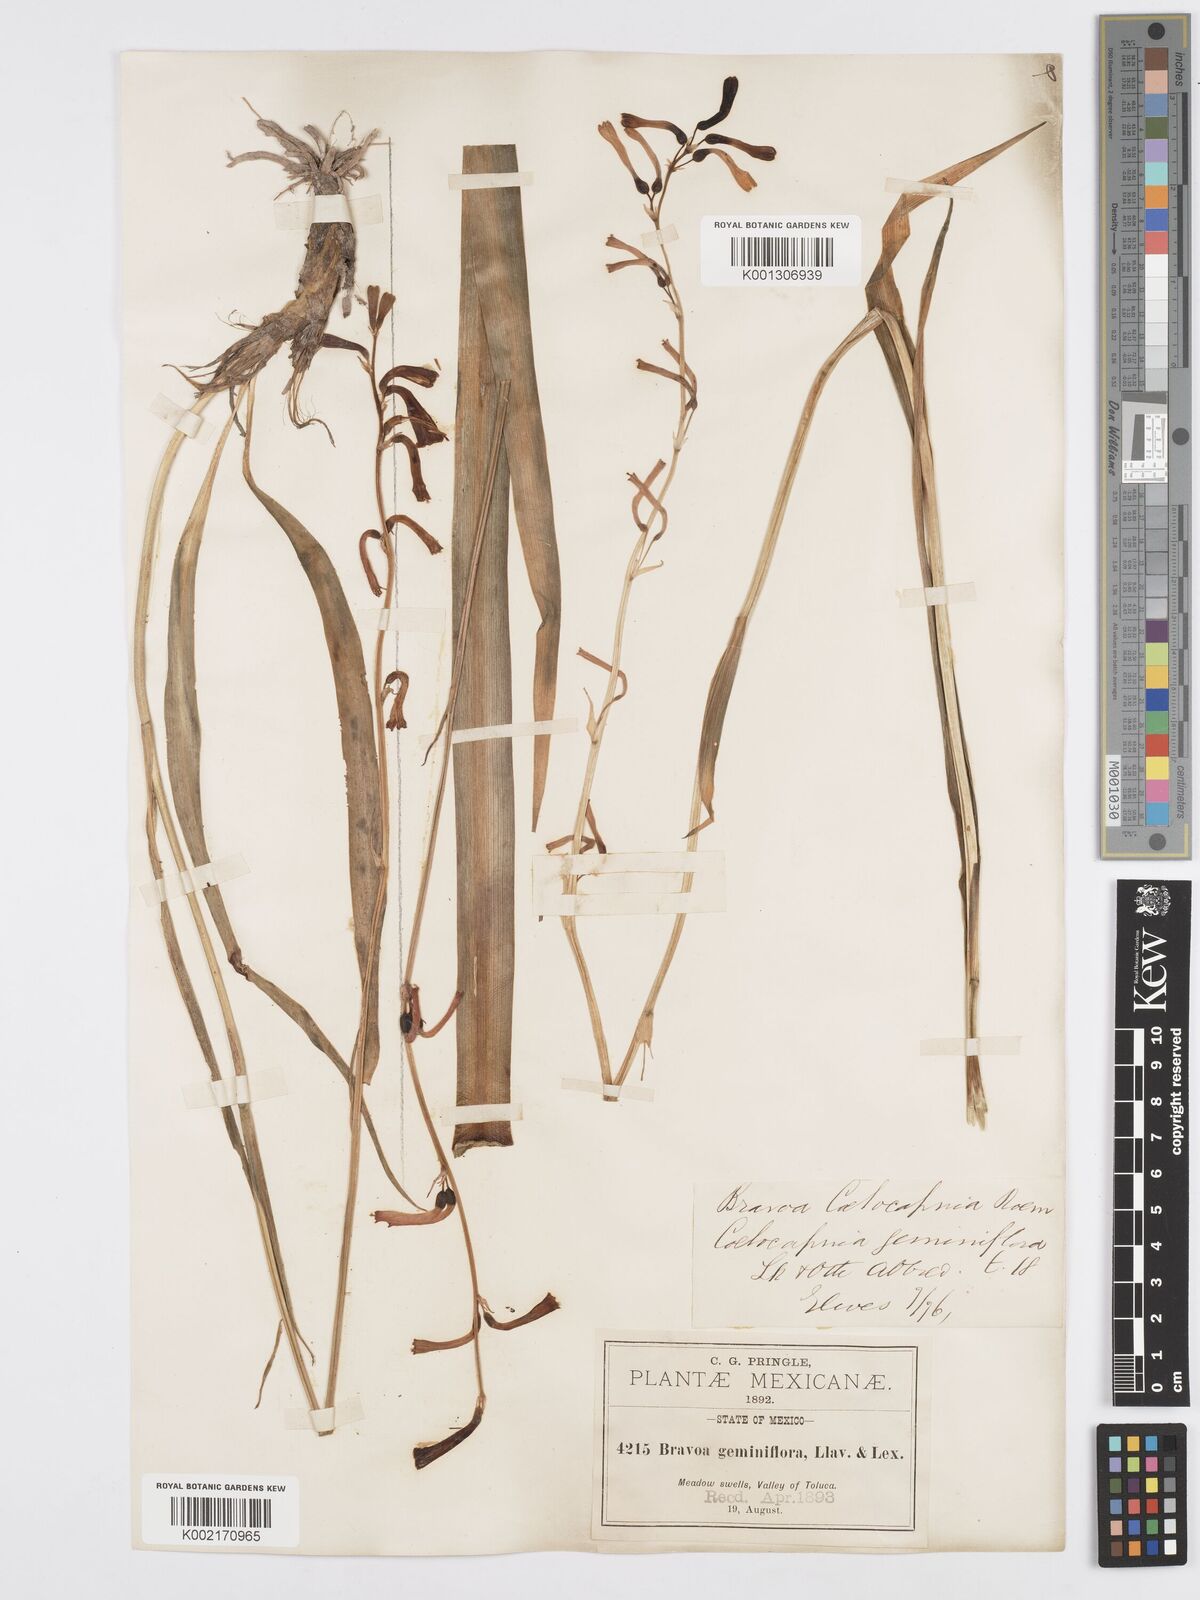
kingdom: Plantae
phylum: Tracheophyta
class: Liliopsida
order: Asparagales
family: Asparagaceae
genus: Agave
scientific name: Agave coetocapnia
